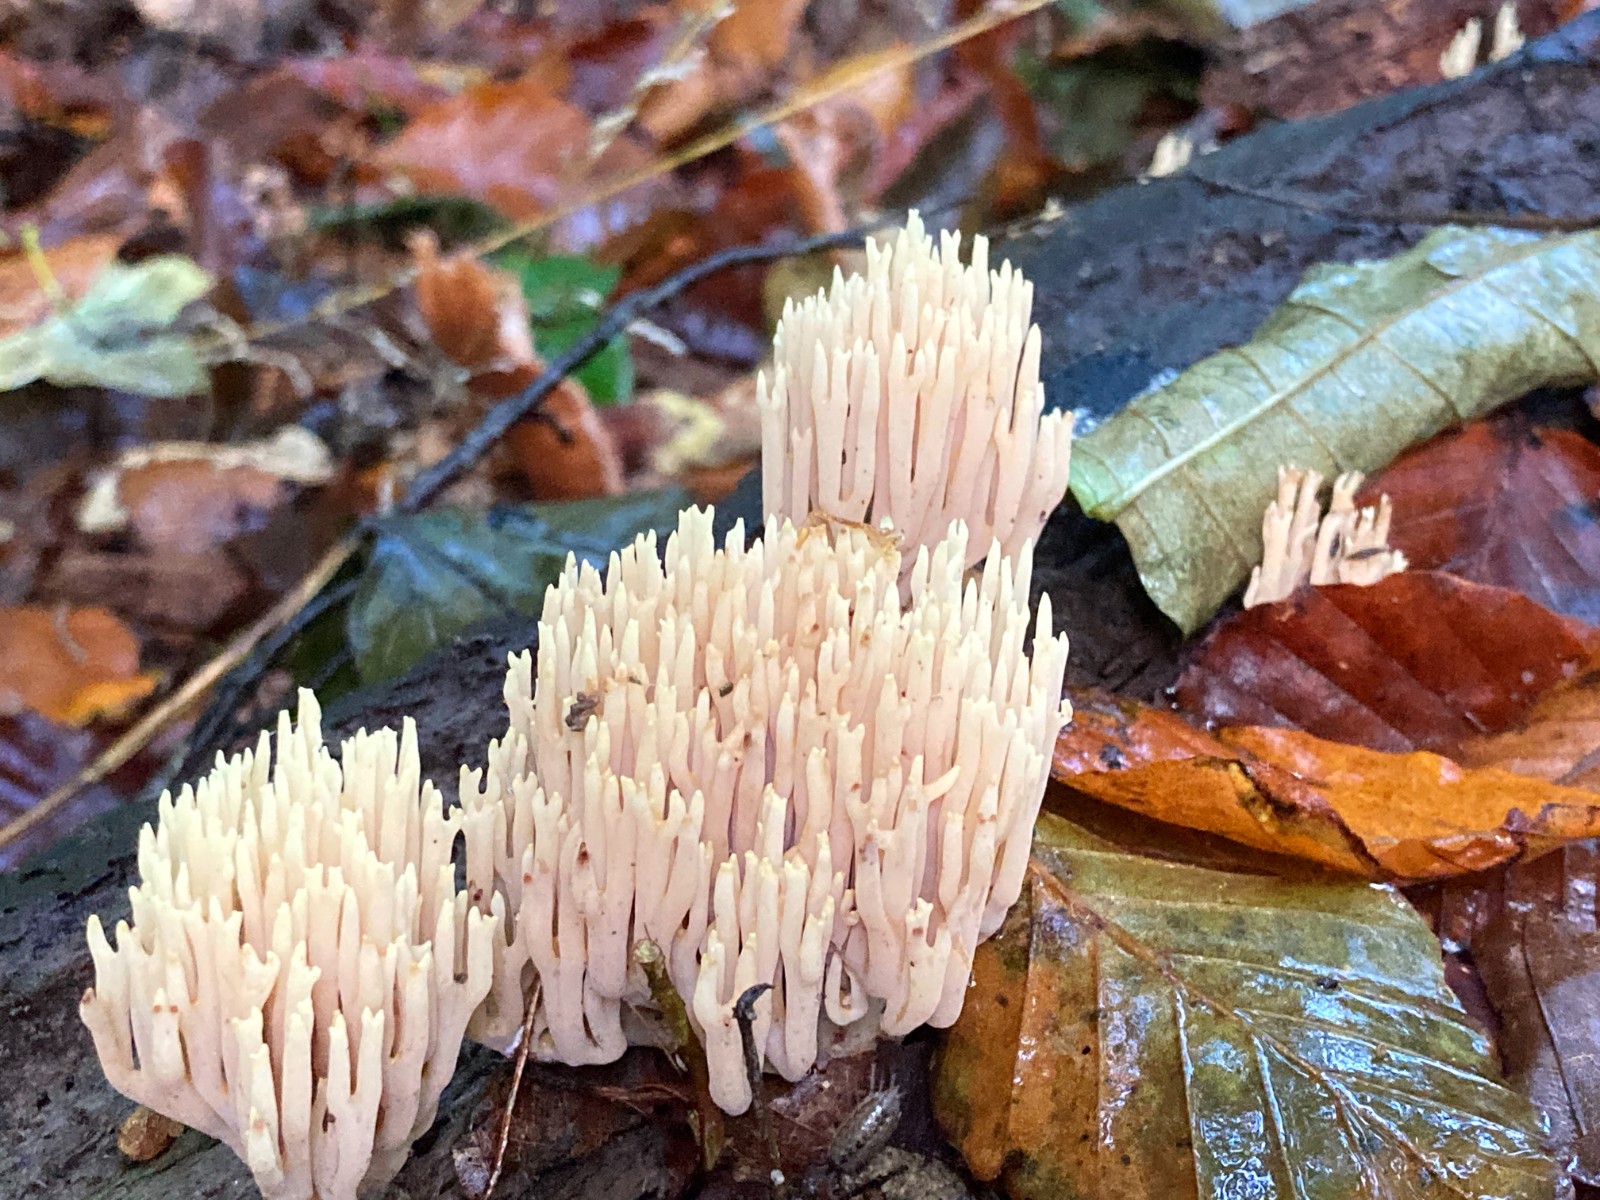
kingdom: Fungi
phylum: Basidiomycota
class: Agaricomycetes
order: Gomphales
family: Gomphaceae
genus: Ramaria
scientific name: Ramaria stricta
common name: rank koralsvamp
